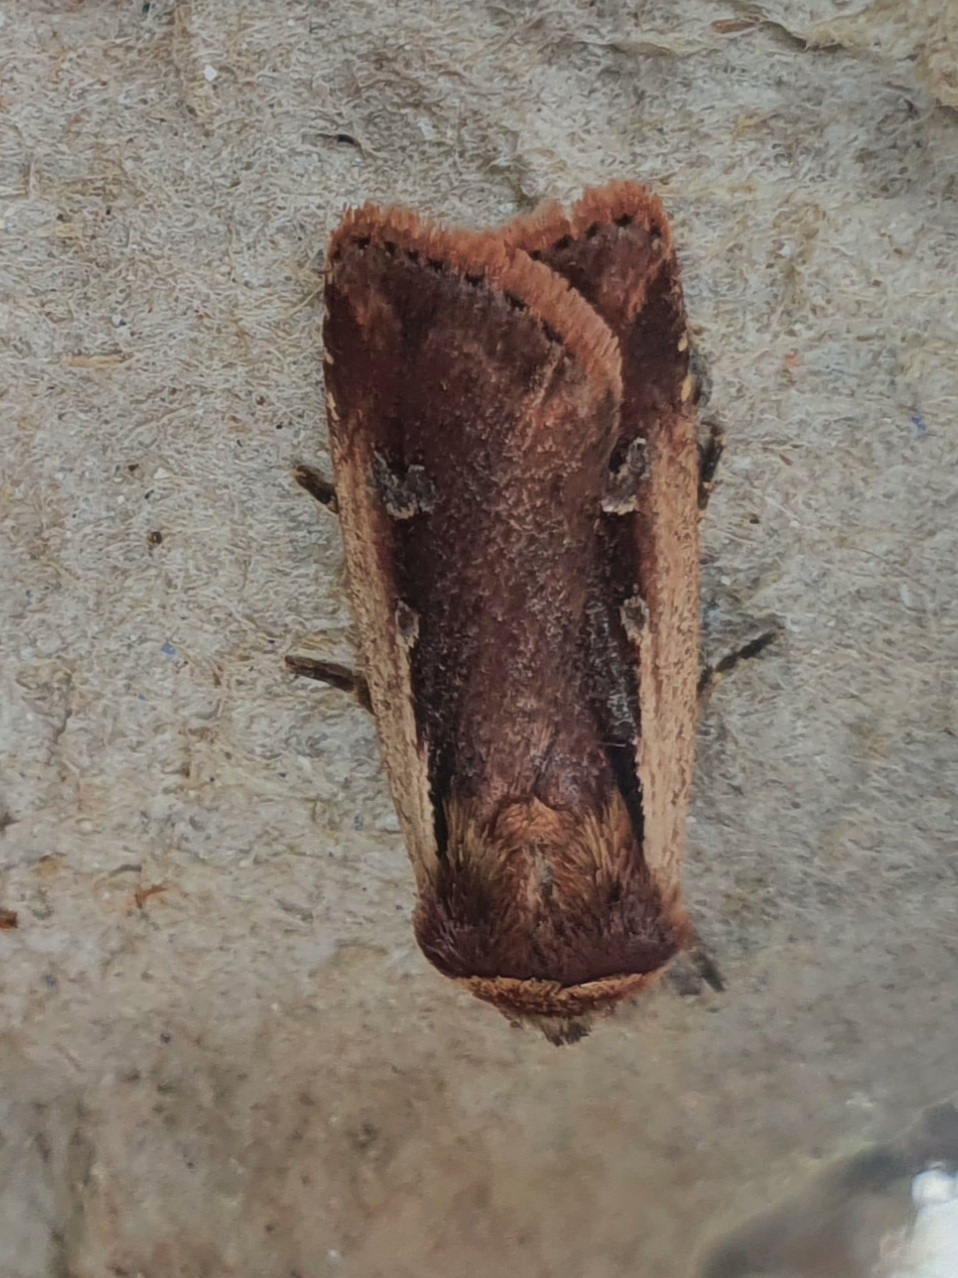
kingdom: Animalia
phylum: Arthropoda
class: Insecta
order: Lepidoptera
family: Noctuidae
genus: Ochropleura
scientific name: Ochropleura plecta
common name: Hvidrandet jordugle
